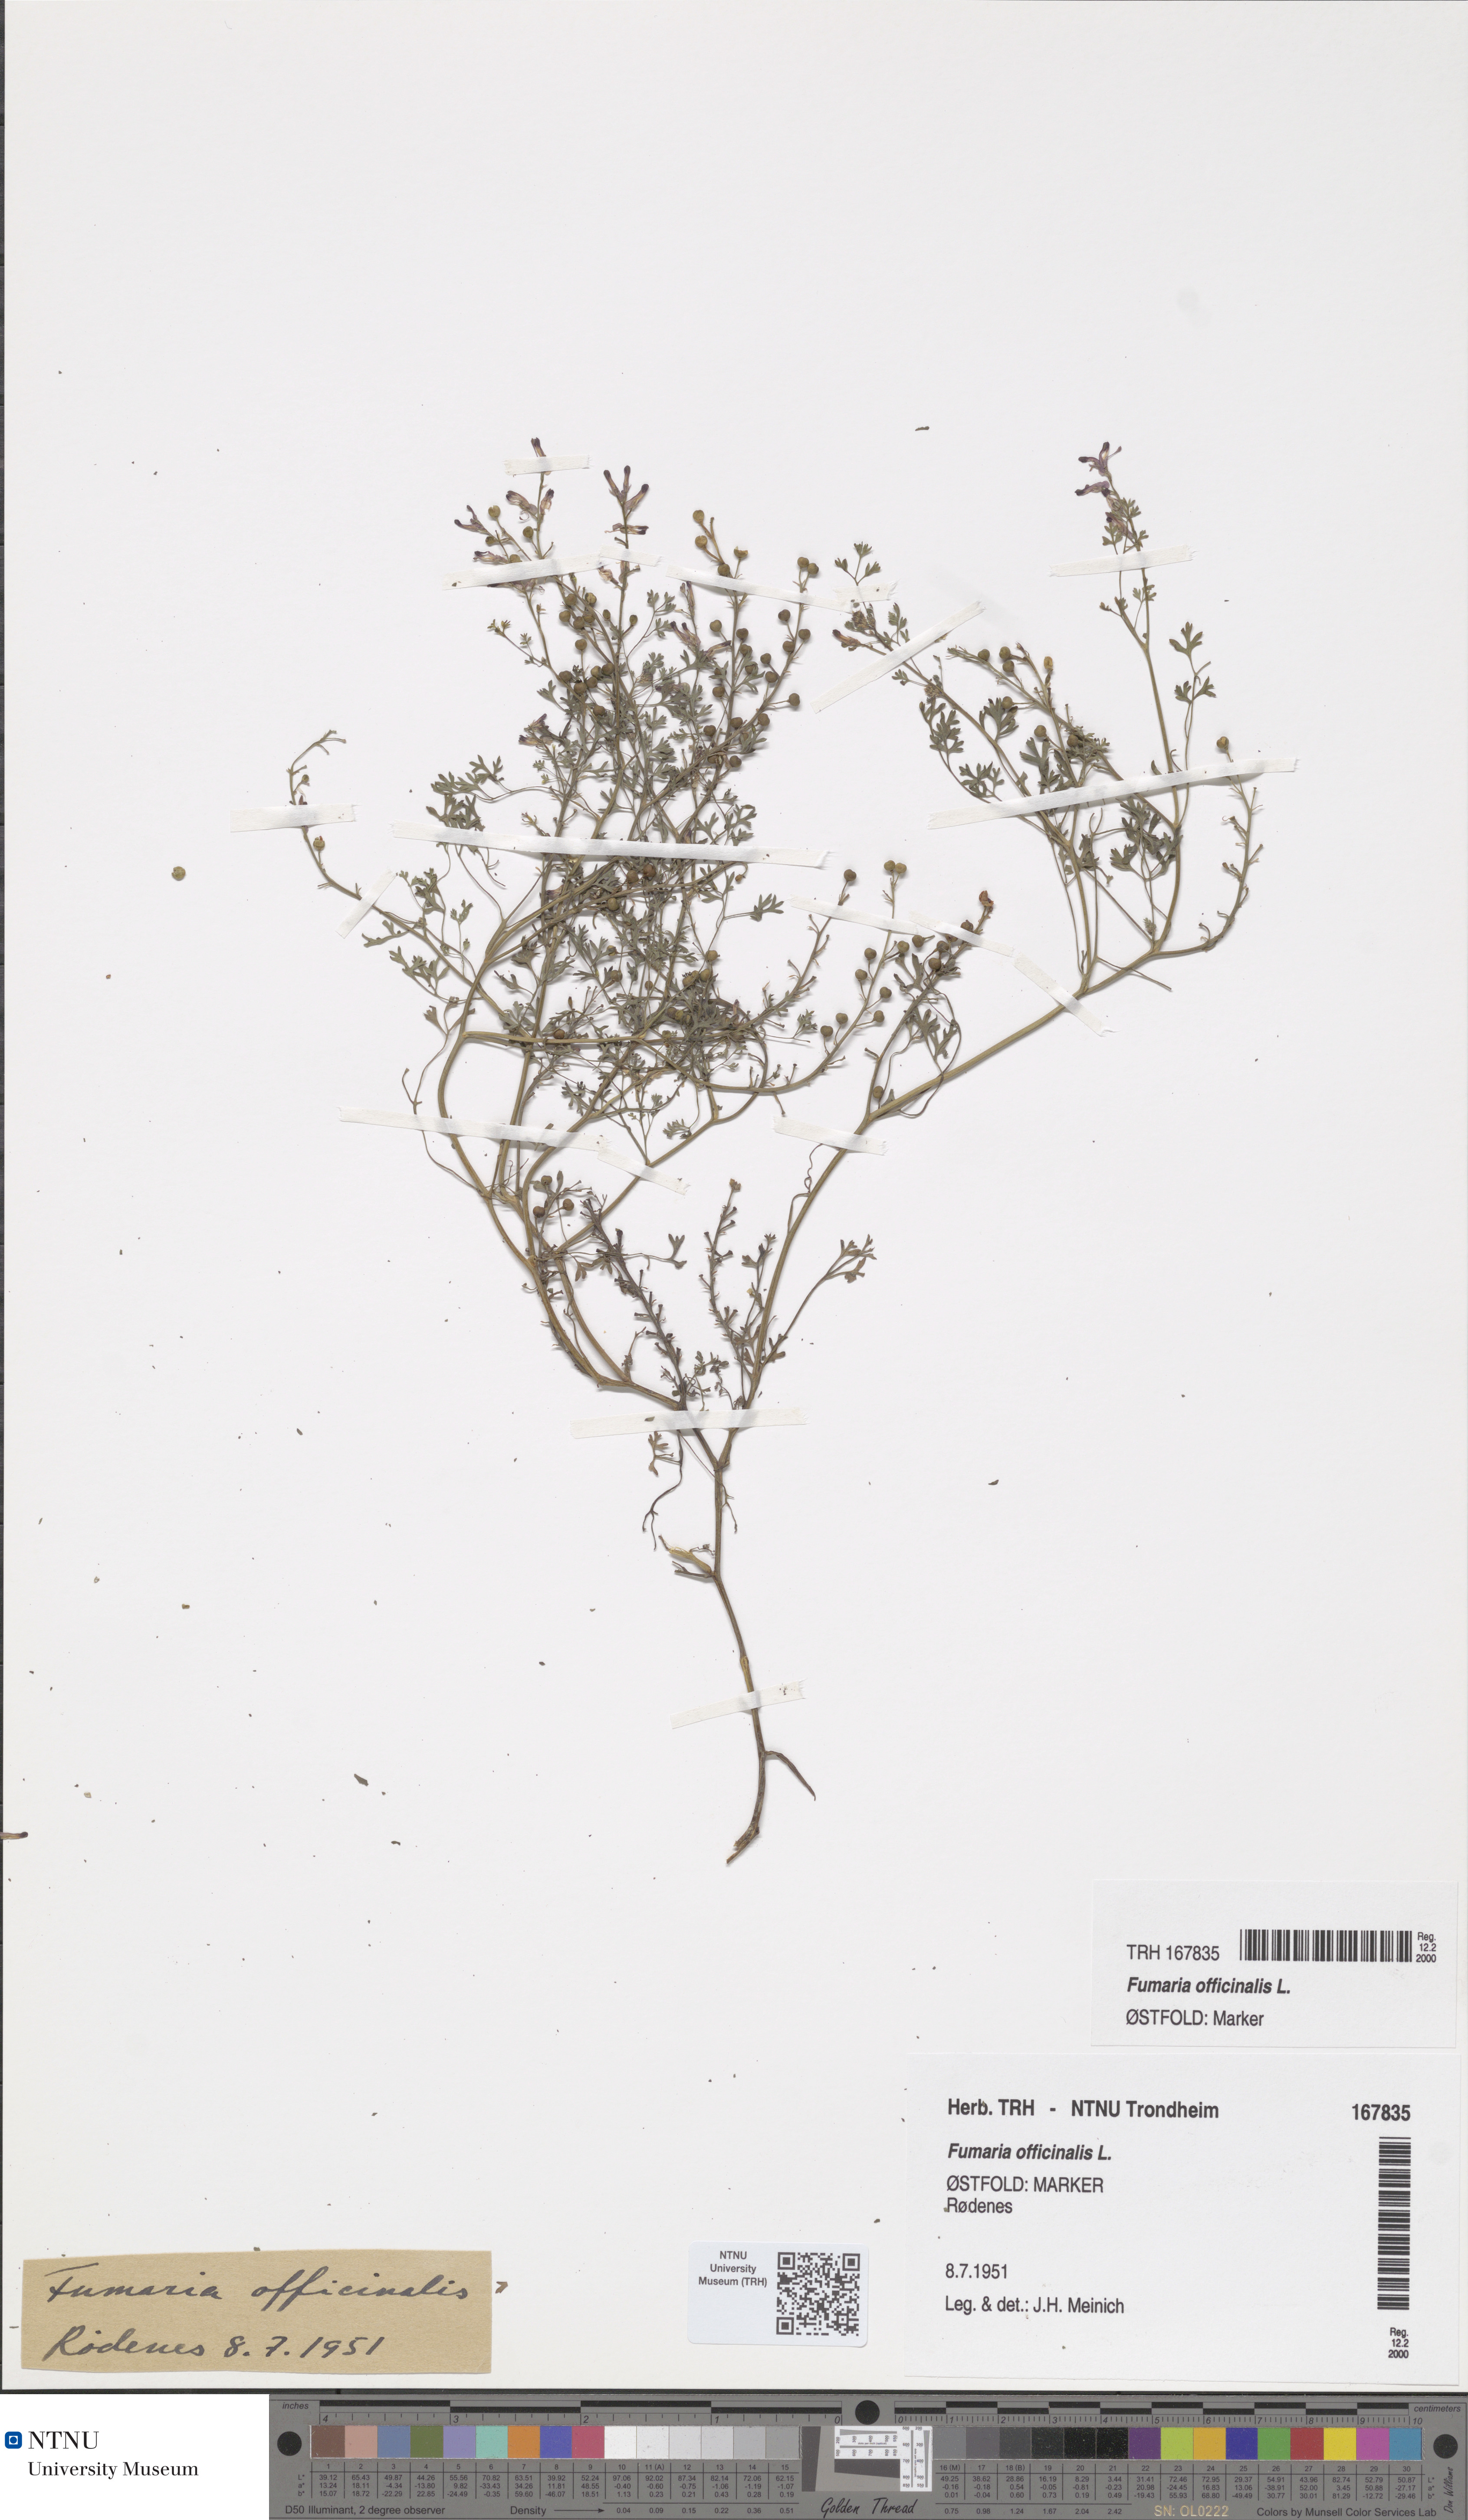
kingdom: Plantae
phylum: Tracheophyta
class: Magnoliopsida
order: Ranunculales
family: Papaveraceae
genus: Fumaria
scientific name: Fumaria officinalis
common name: Common fumitory
